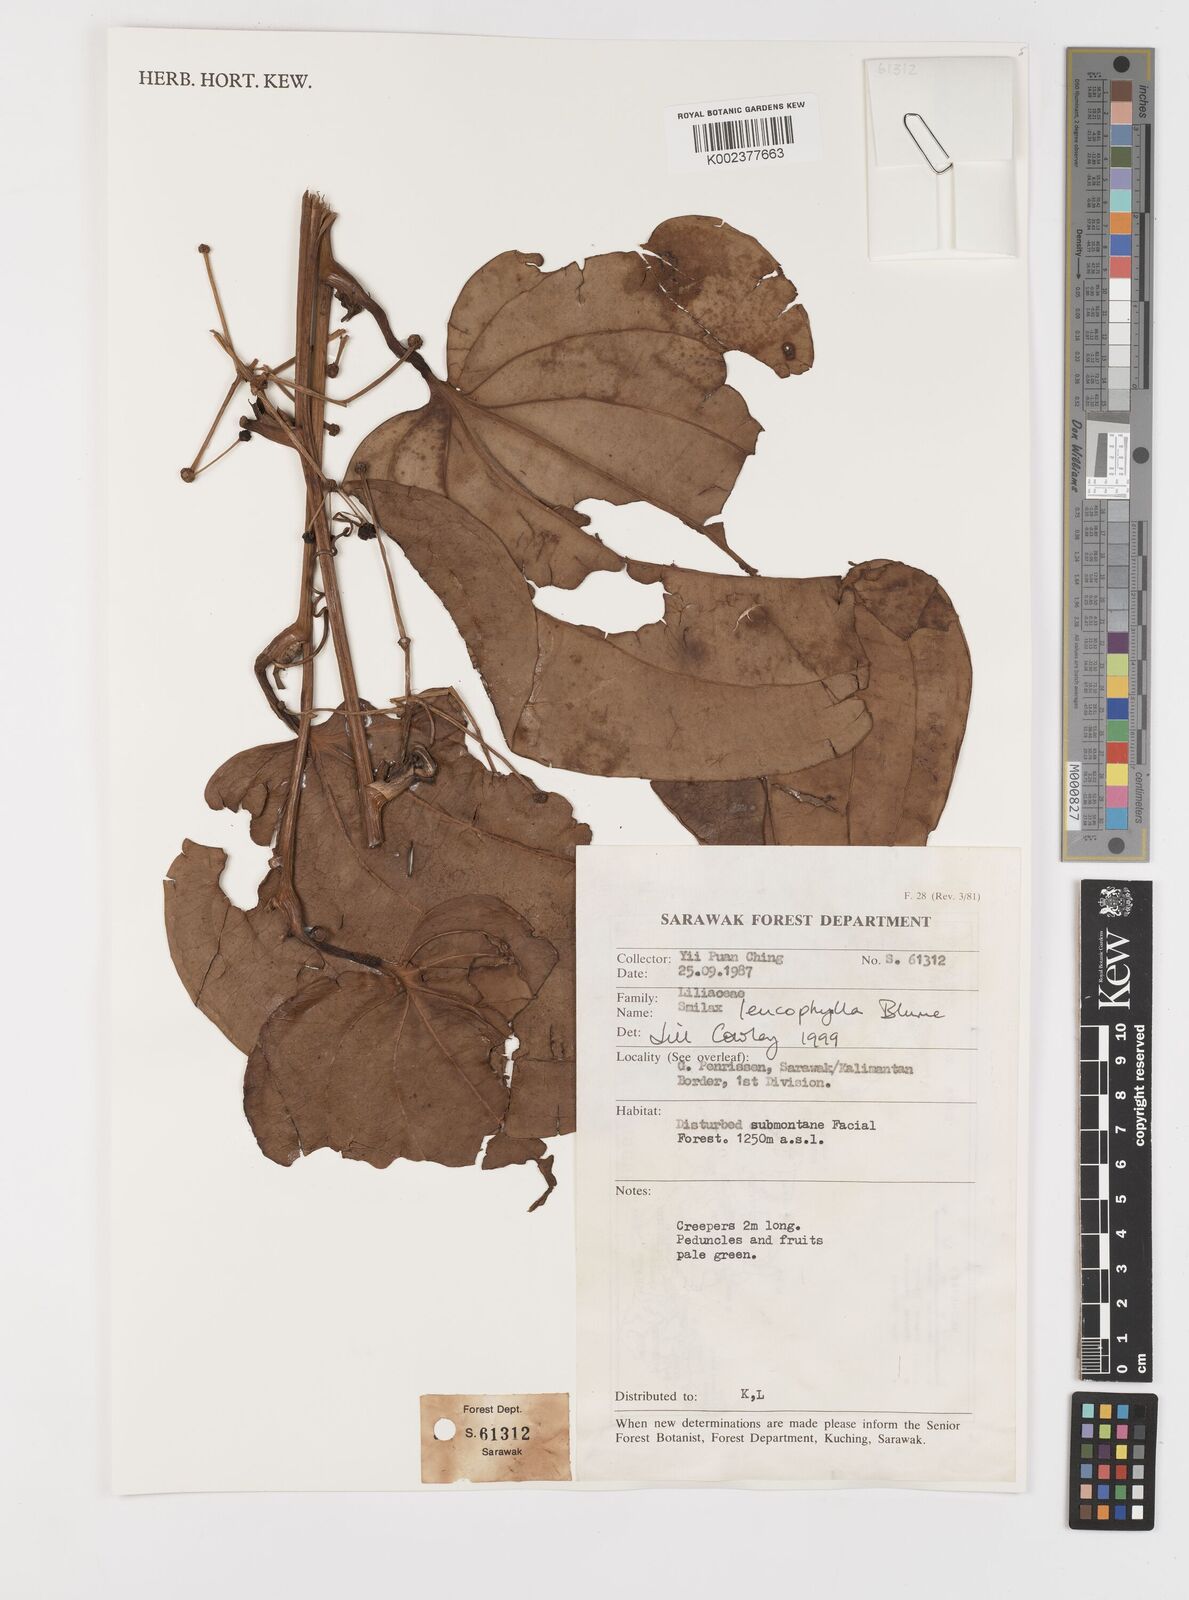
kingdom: Plantae
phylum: Tracheophyta
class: Liliopsida
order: Liliales
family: Smilacaceae
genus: Smilax
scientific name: Smilax leucophylla
